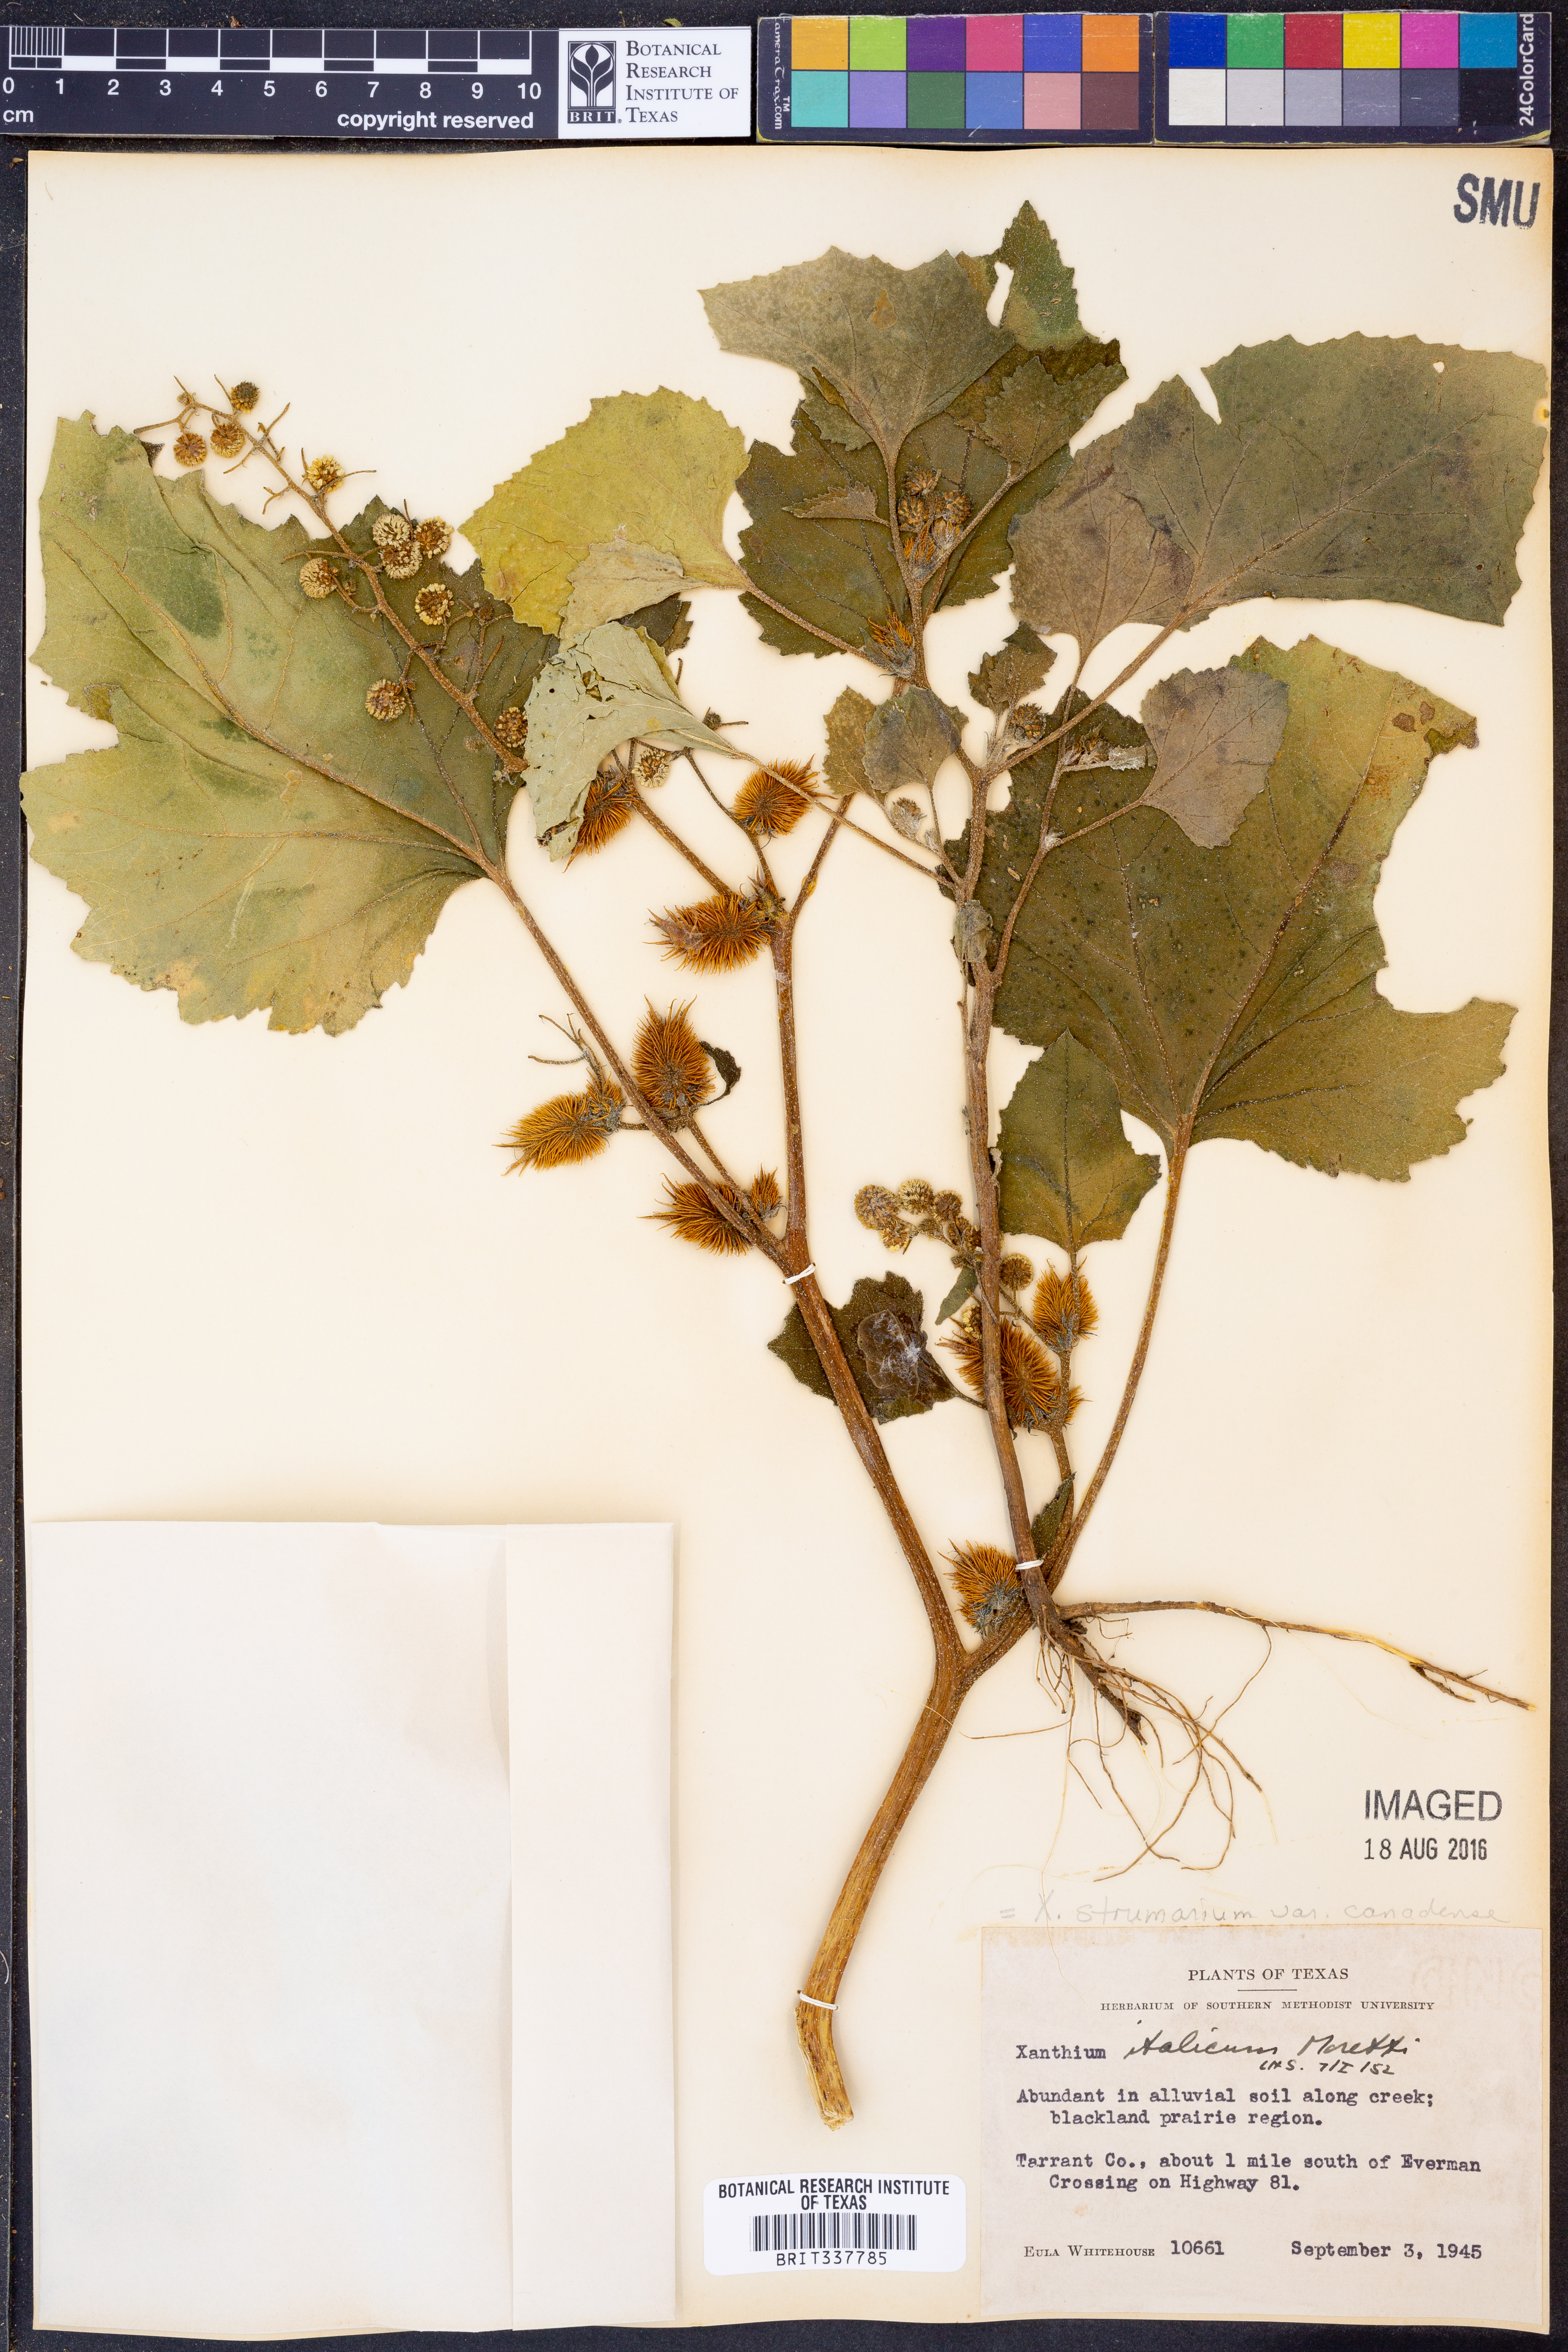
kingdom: Plantae
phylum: Tracheophyta
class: Magnoliopsida
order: Asterales
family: Asteraceae
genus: Xanthium
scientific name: Xanthium orientale
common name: Californian burr
